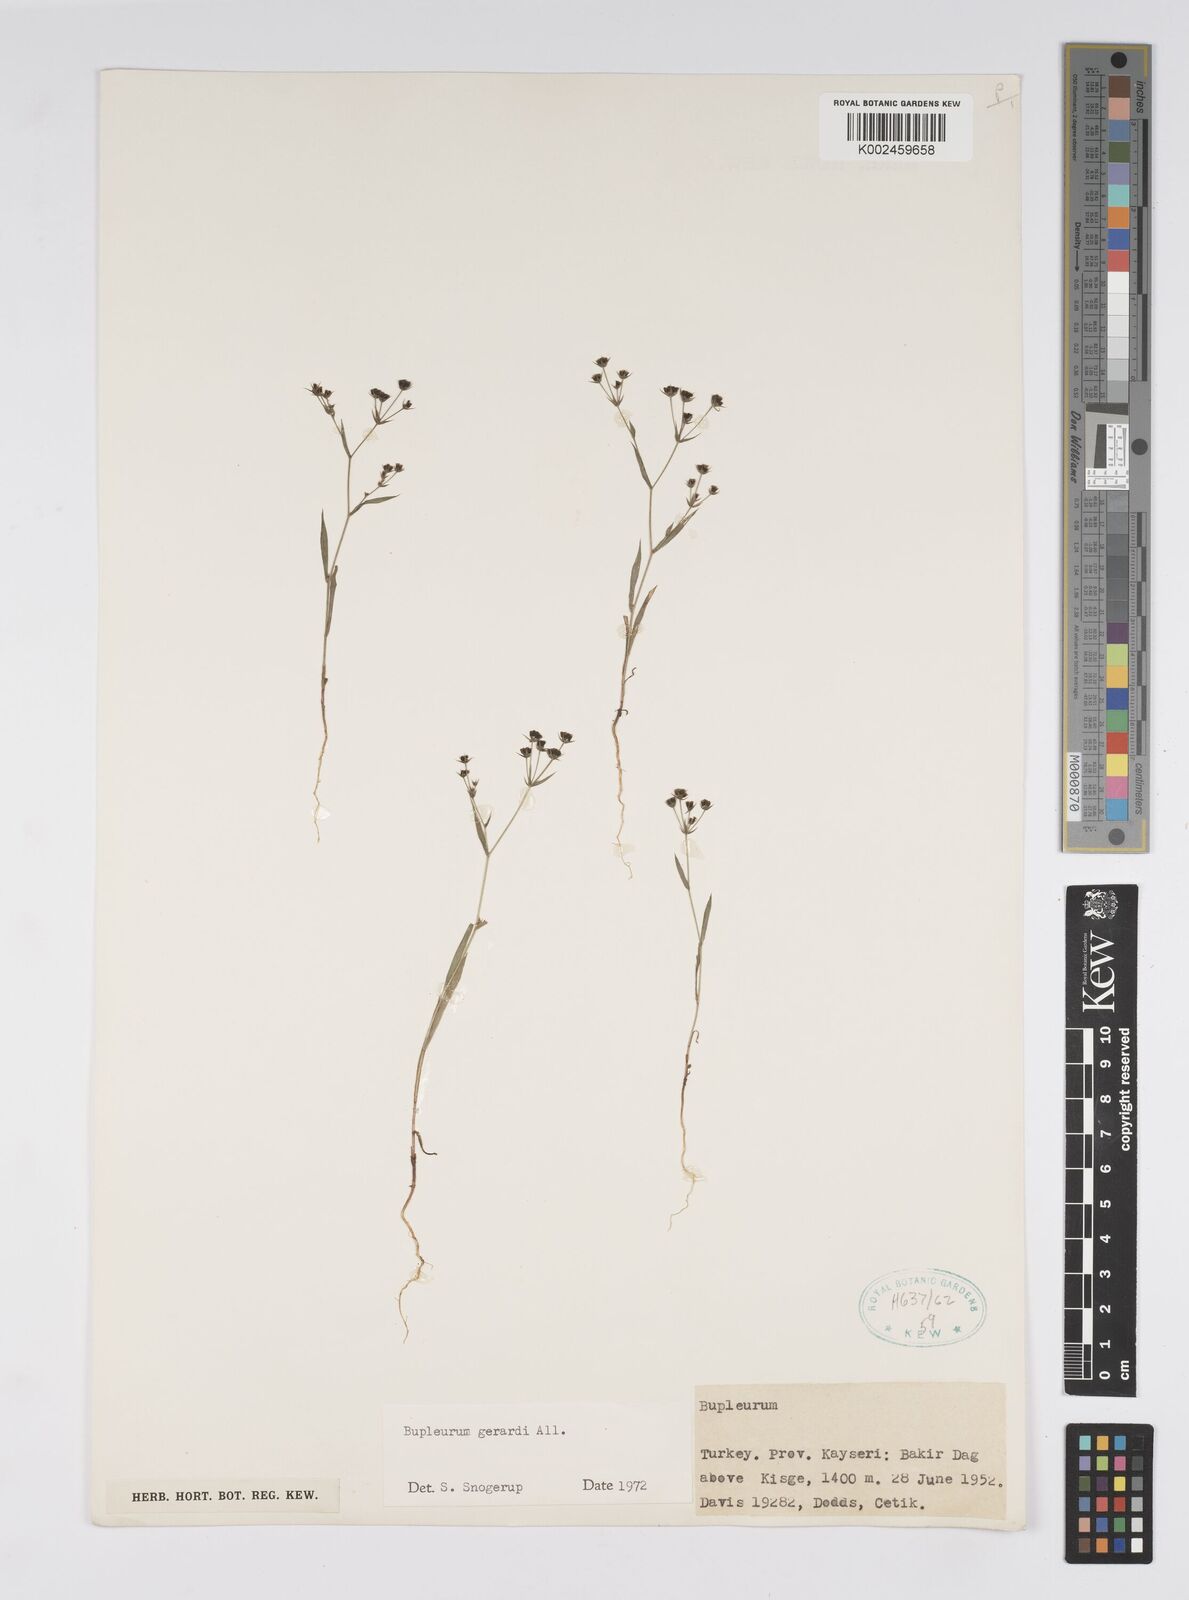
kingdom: Plantae
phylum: Tracheophyta
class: Magnoliopsida
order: Apiales
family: Apiaceae
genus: Bupleurum
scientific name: Bupleurum gerardi
